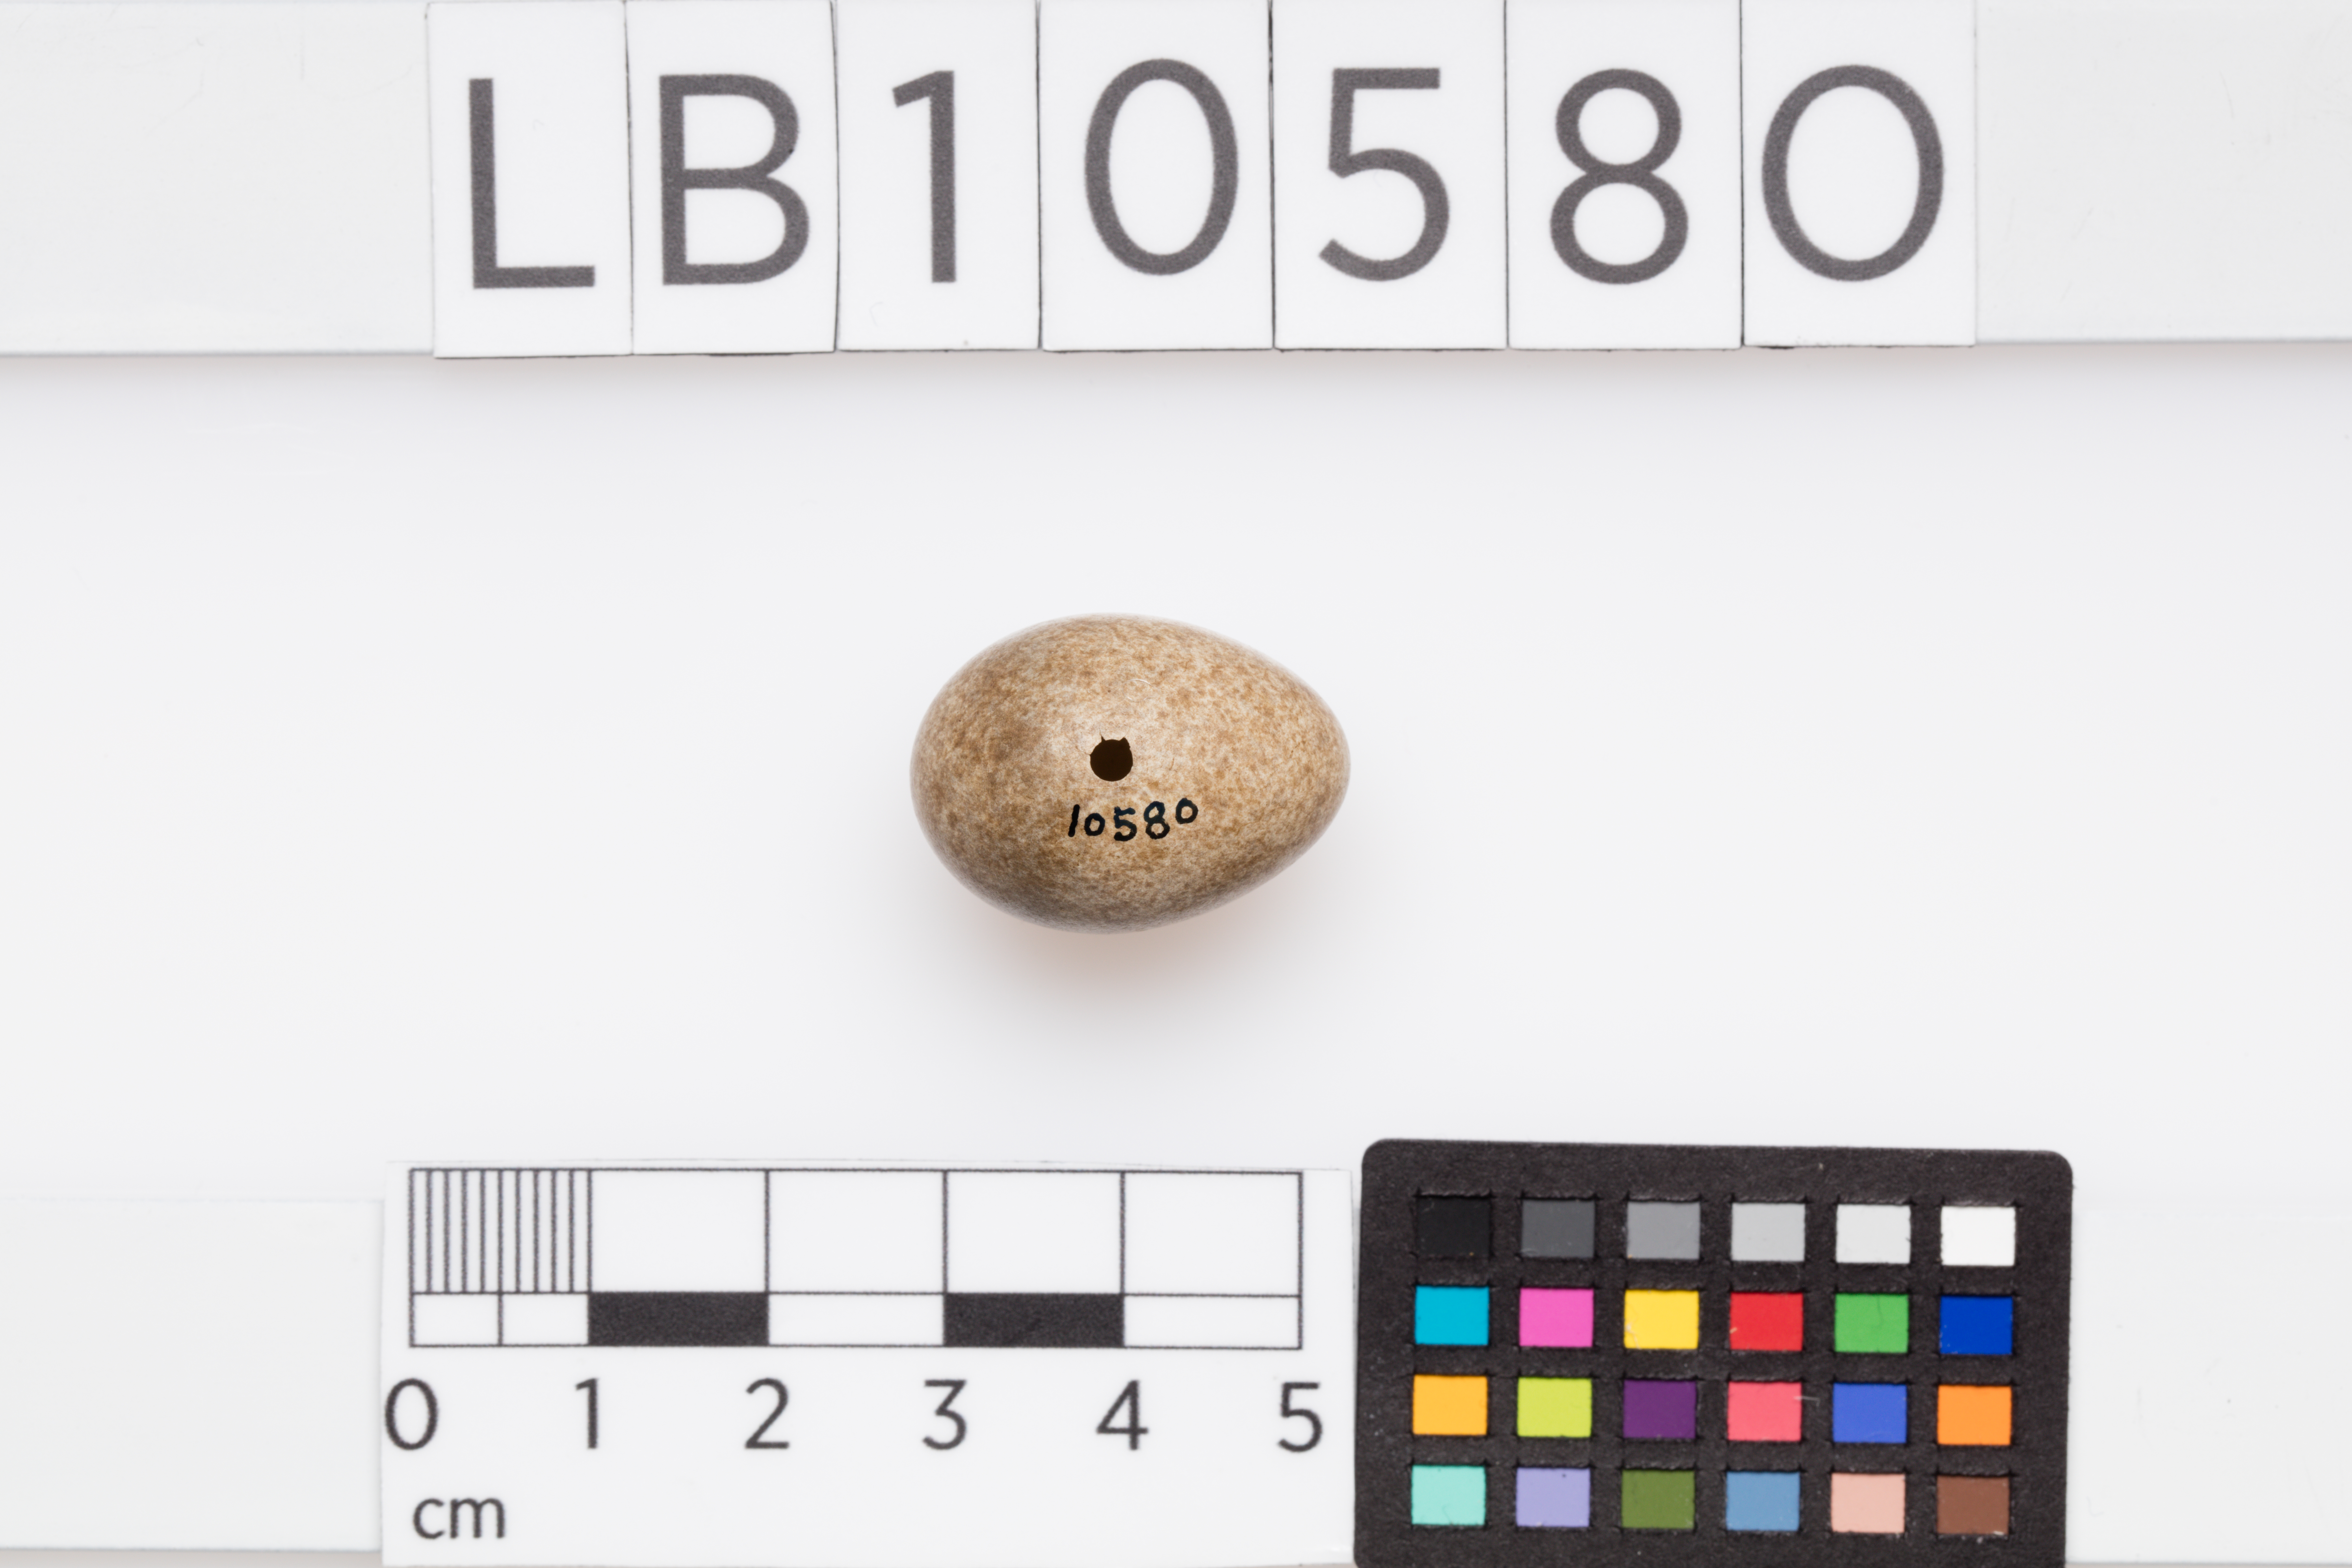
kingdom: Animalia
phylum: Chordata
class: Aves
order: Passeriformes
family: Turdidae
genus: Turdus
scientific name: Turdus iliacus
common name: Redwing
